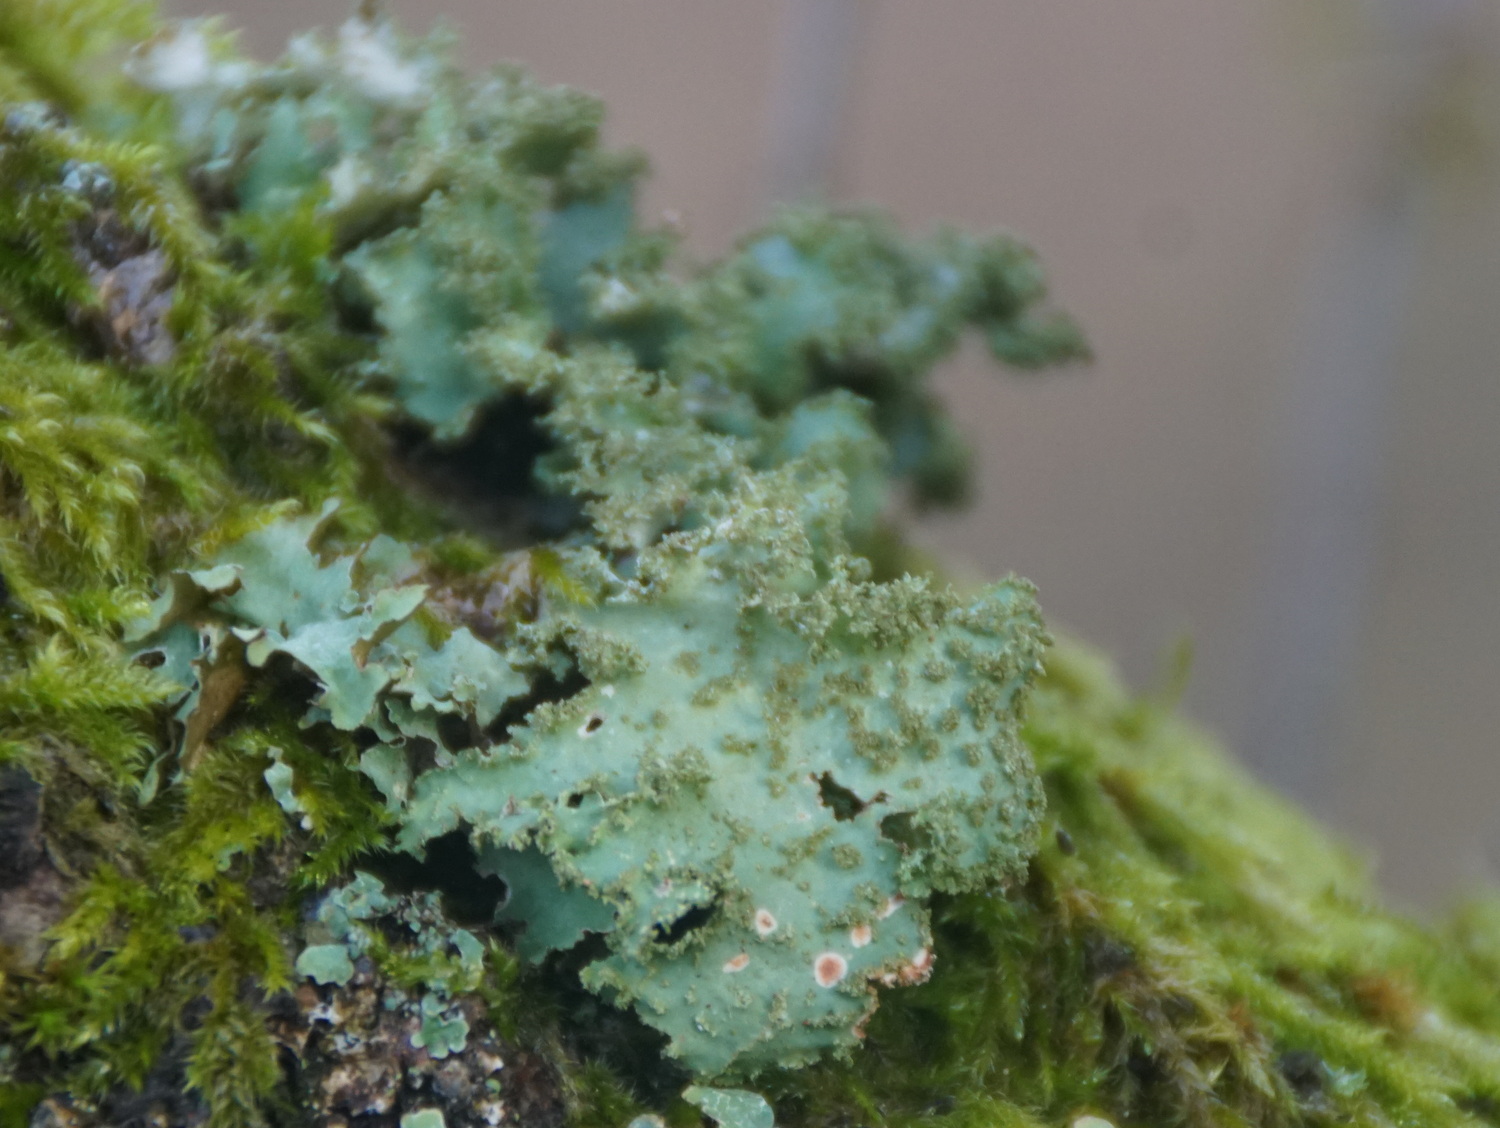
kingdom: Fungi
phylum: Ascomycota
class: Lecanoromycetes
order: Lecanorales
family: Parmeliaceae
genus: Platismatia
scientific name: Platismatia glauca
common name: blågrå papirlav
